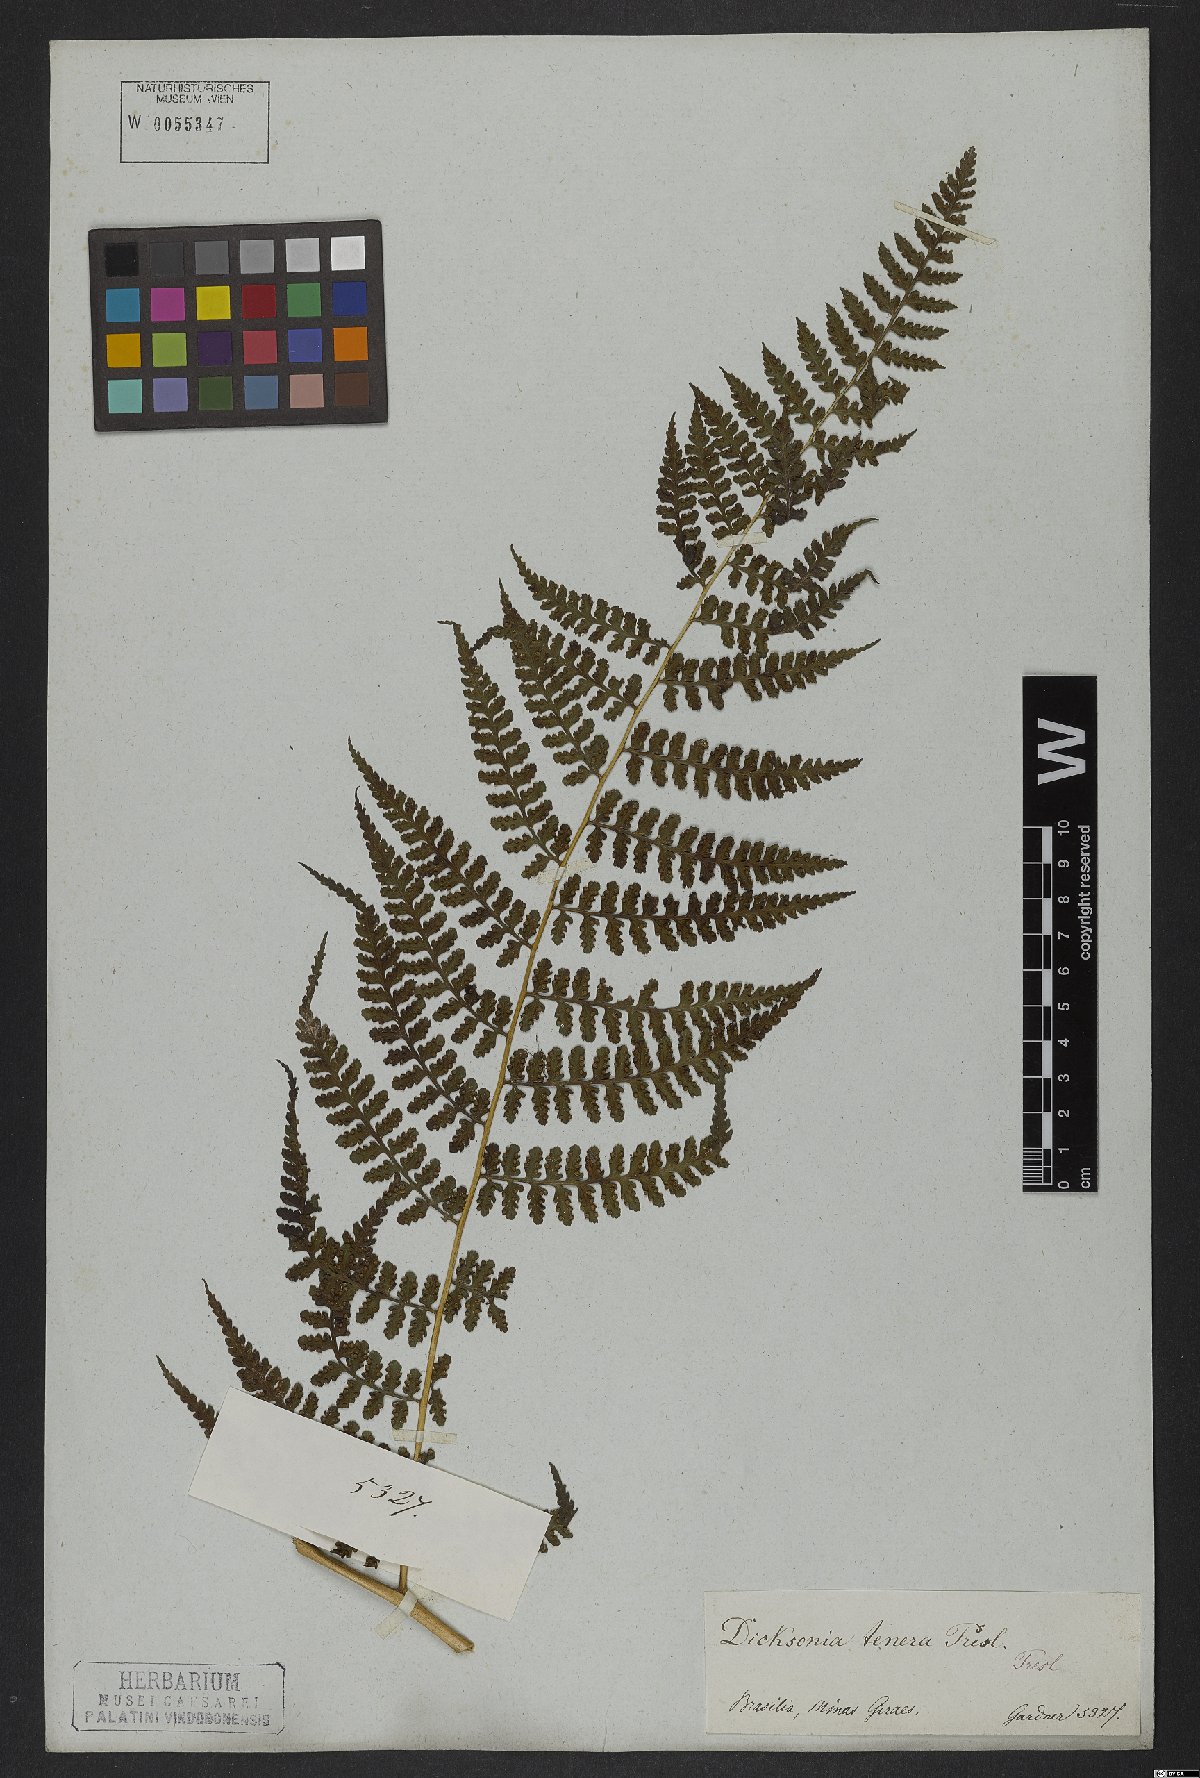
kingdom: Plantae
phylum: Tracheophyta
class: Polypodiopsida
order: Polypodiales
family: Dennstaedtiaceae
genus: Mucura
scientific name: Mucura globulifera
